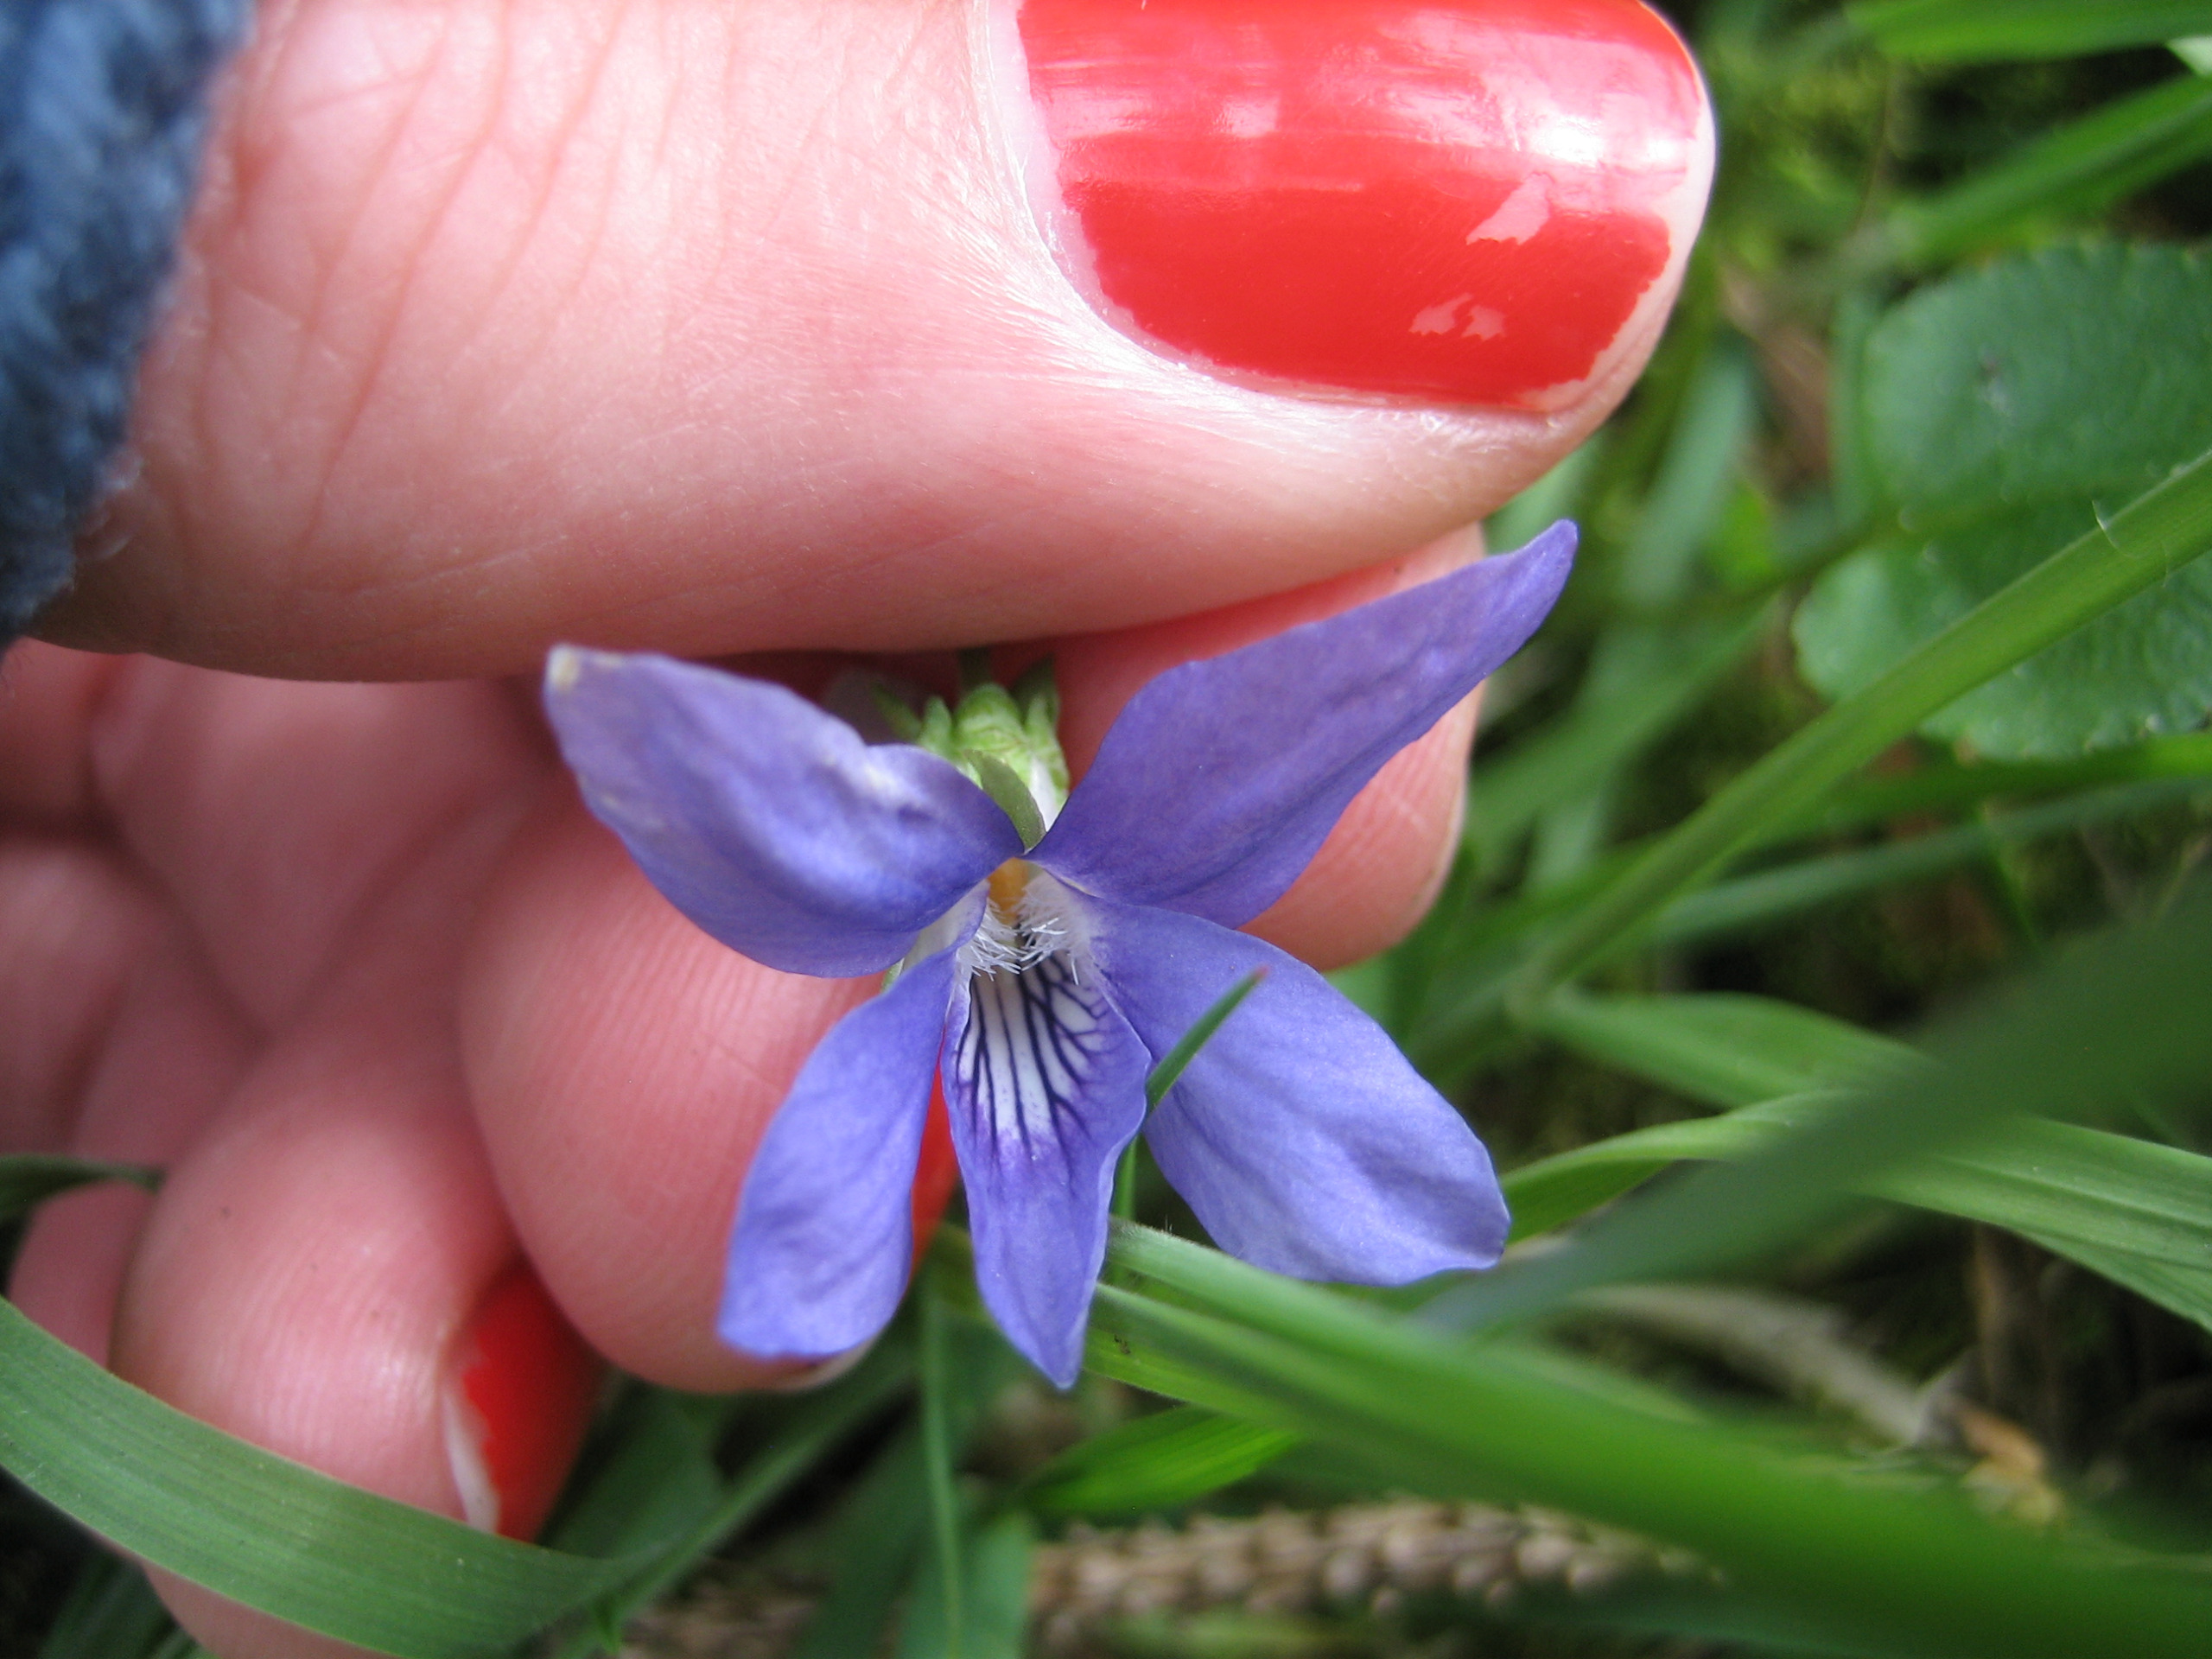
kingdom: Plantae
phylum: Tracheophyta
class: Magnoliopsida
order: Malpighiales
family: Violaceae
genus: Viola
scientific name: Viola riviniana
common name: Krat-viol
